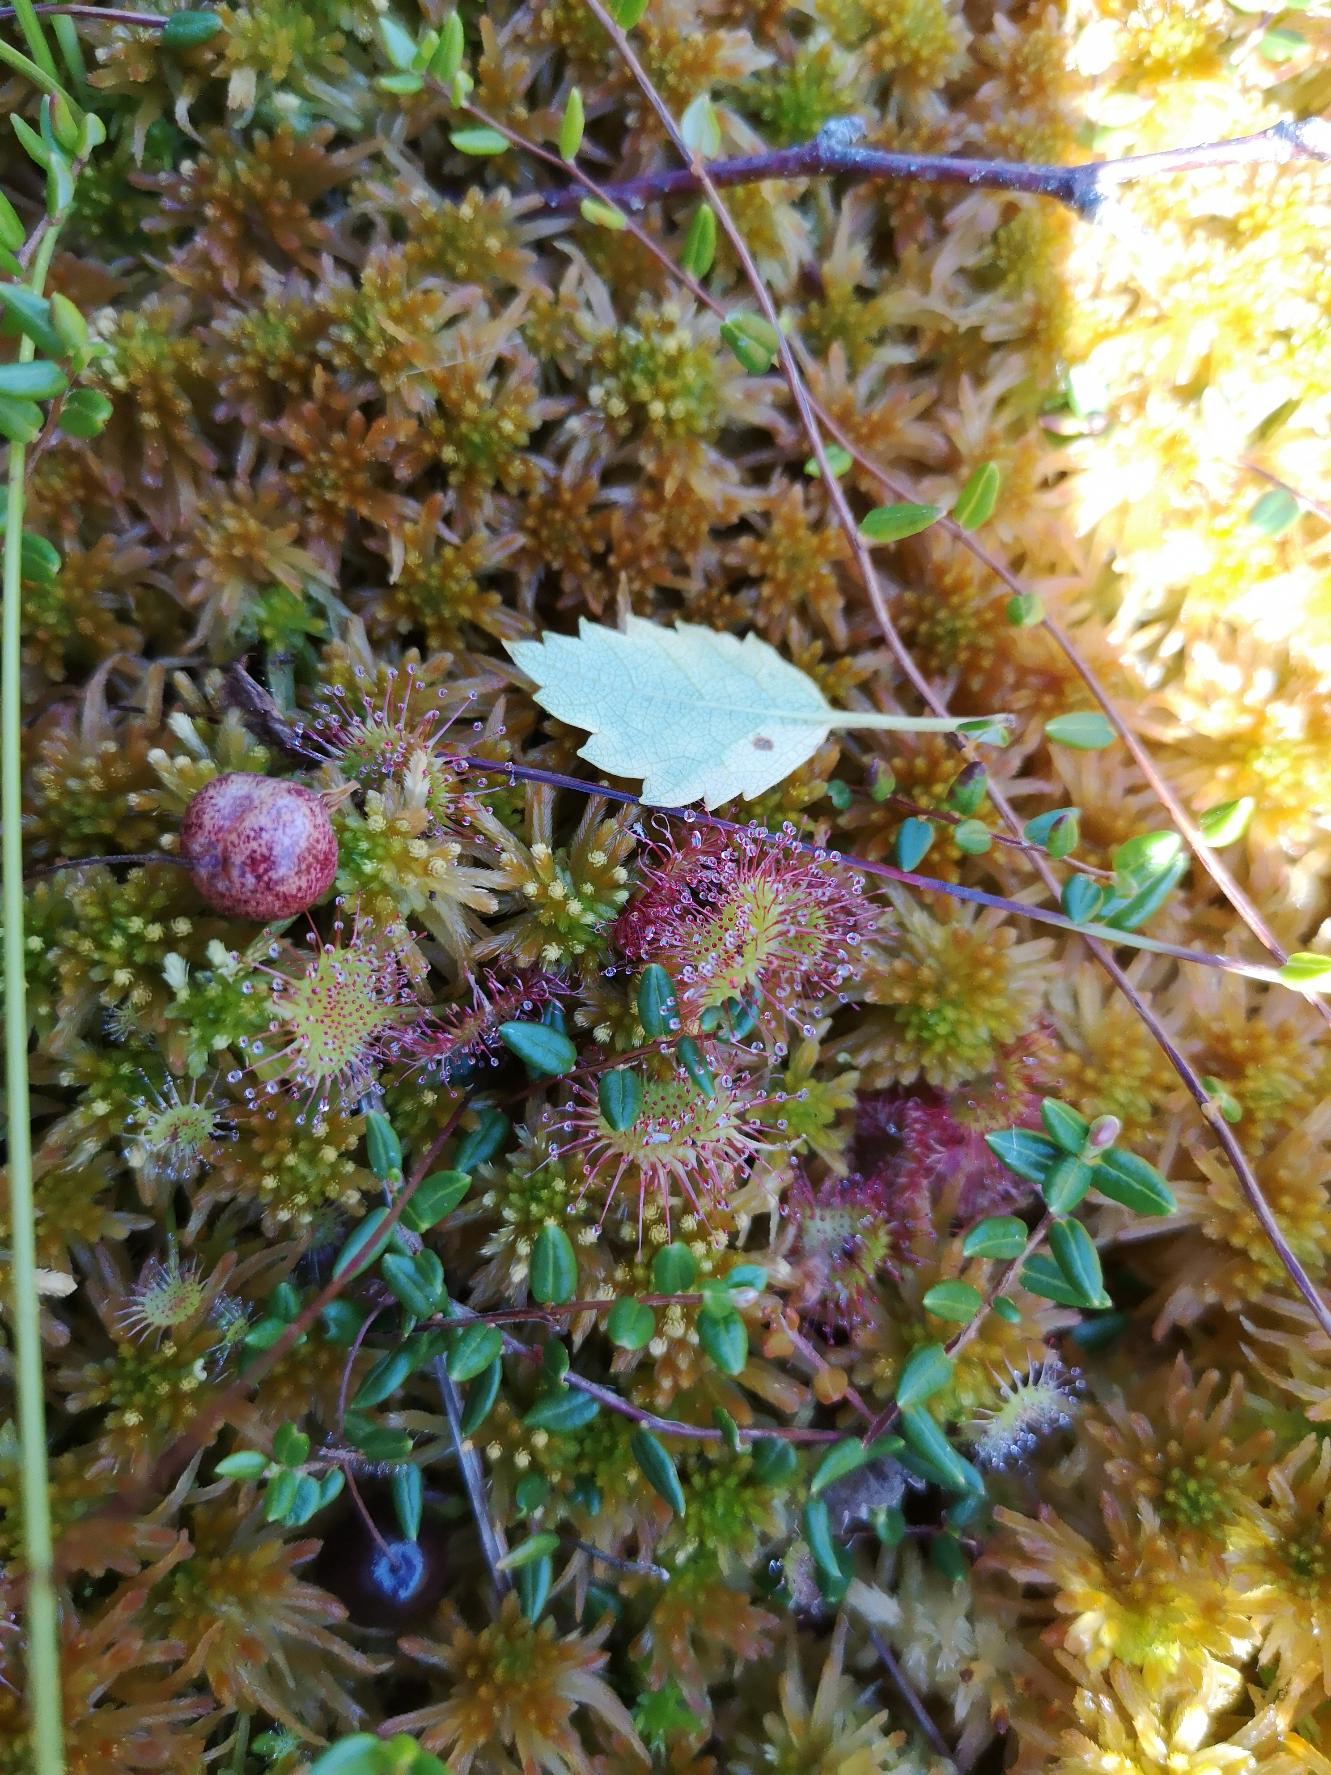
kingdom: Plantae
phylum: Tracheophyta
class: Magnoliopsida
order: Caryophyllales
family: Droseraceae
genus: Drosera
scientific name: Drosera rotundifolia
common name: Rundbladet soldug
